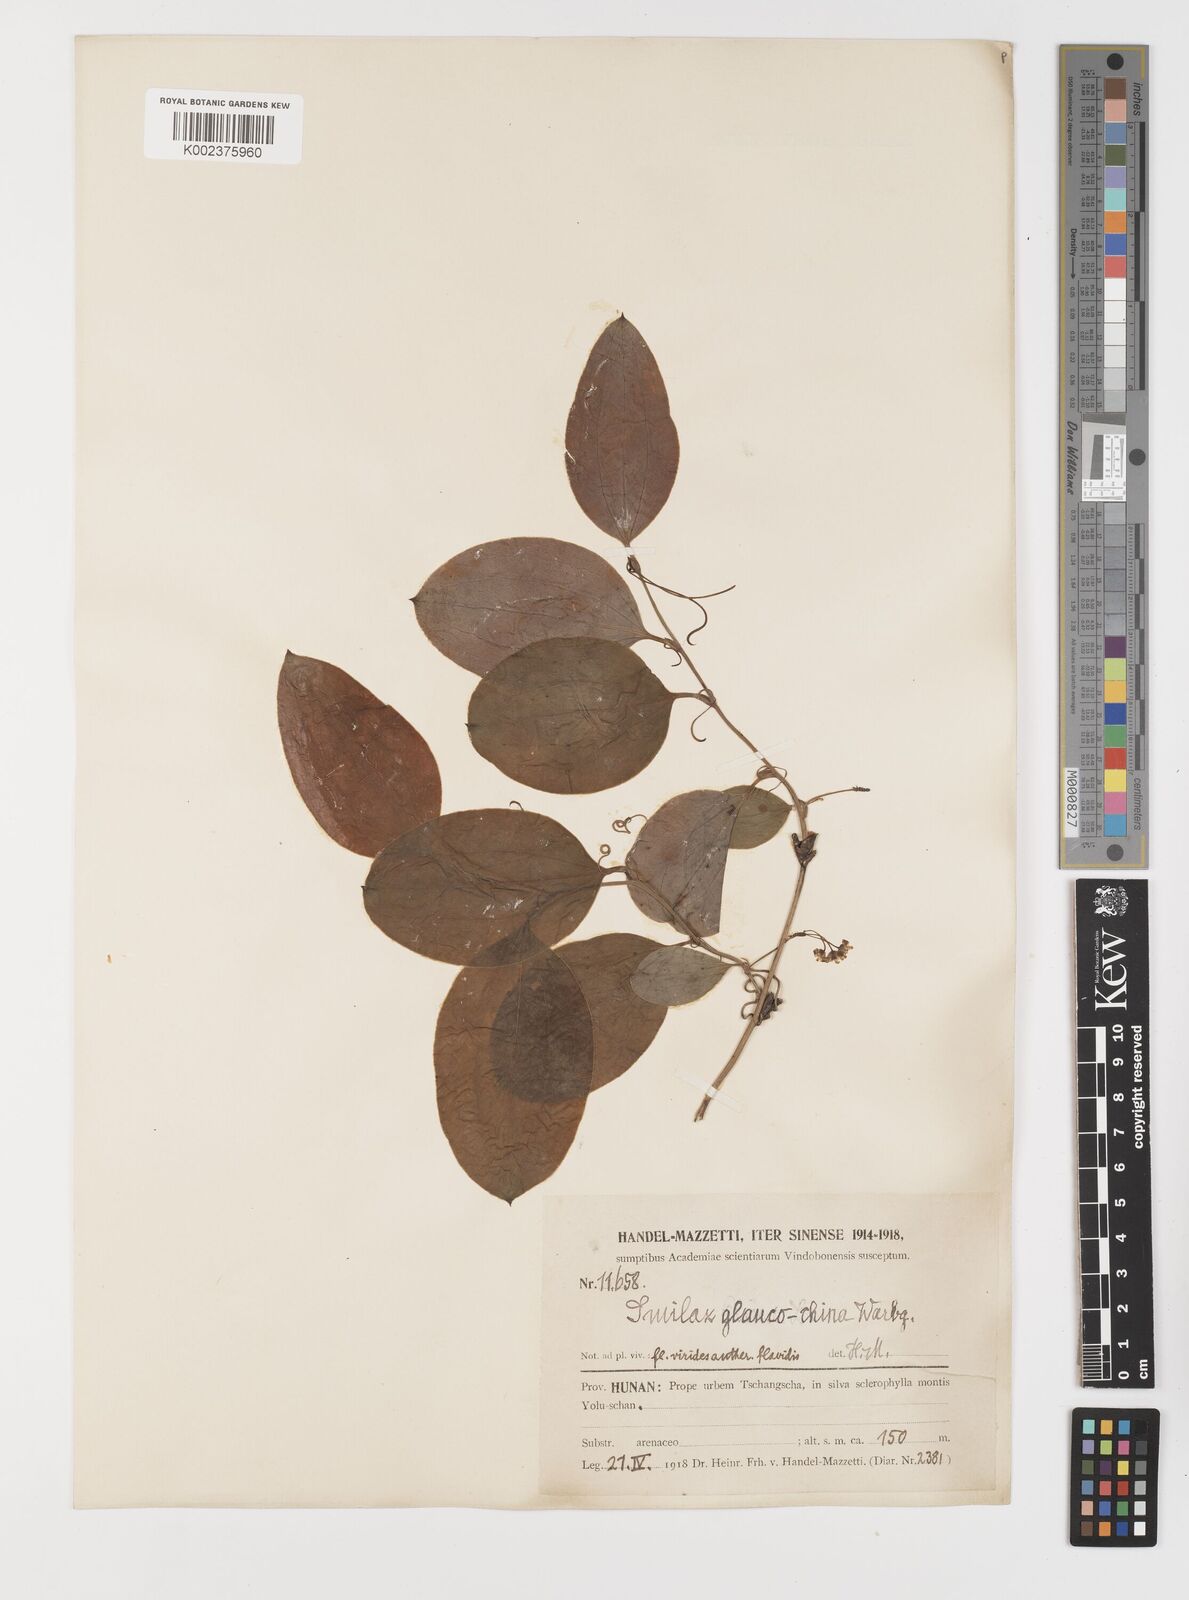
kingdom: Plantae
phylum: Tracheophyta
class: Liliopsida
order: Liliales
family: Smilacaceae
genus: Smilax
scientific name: Smilax glaucochina
